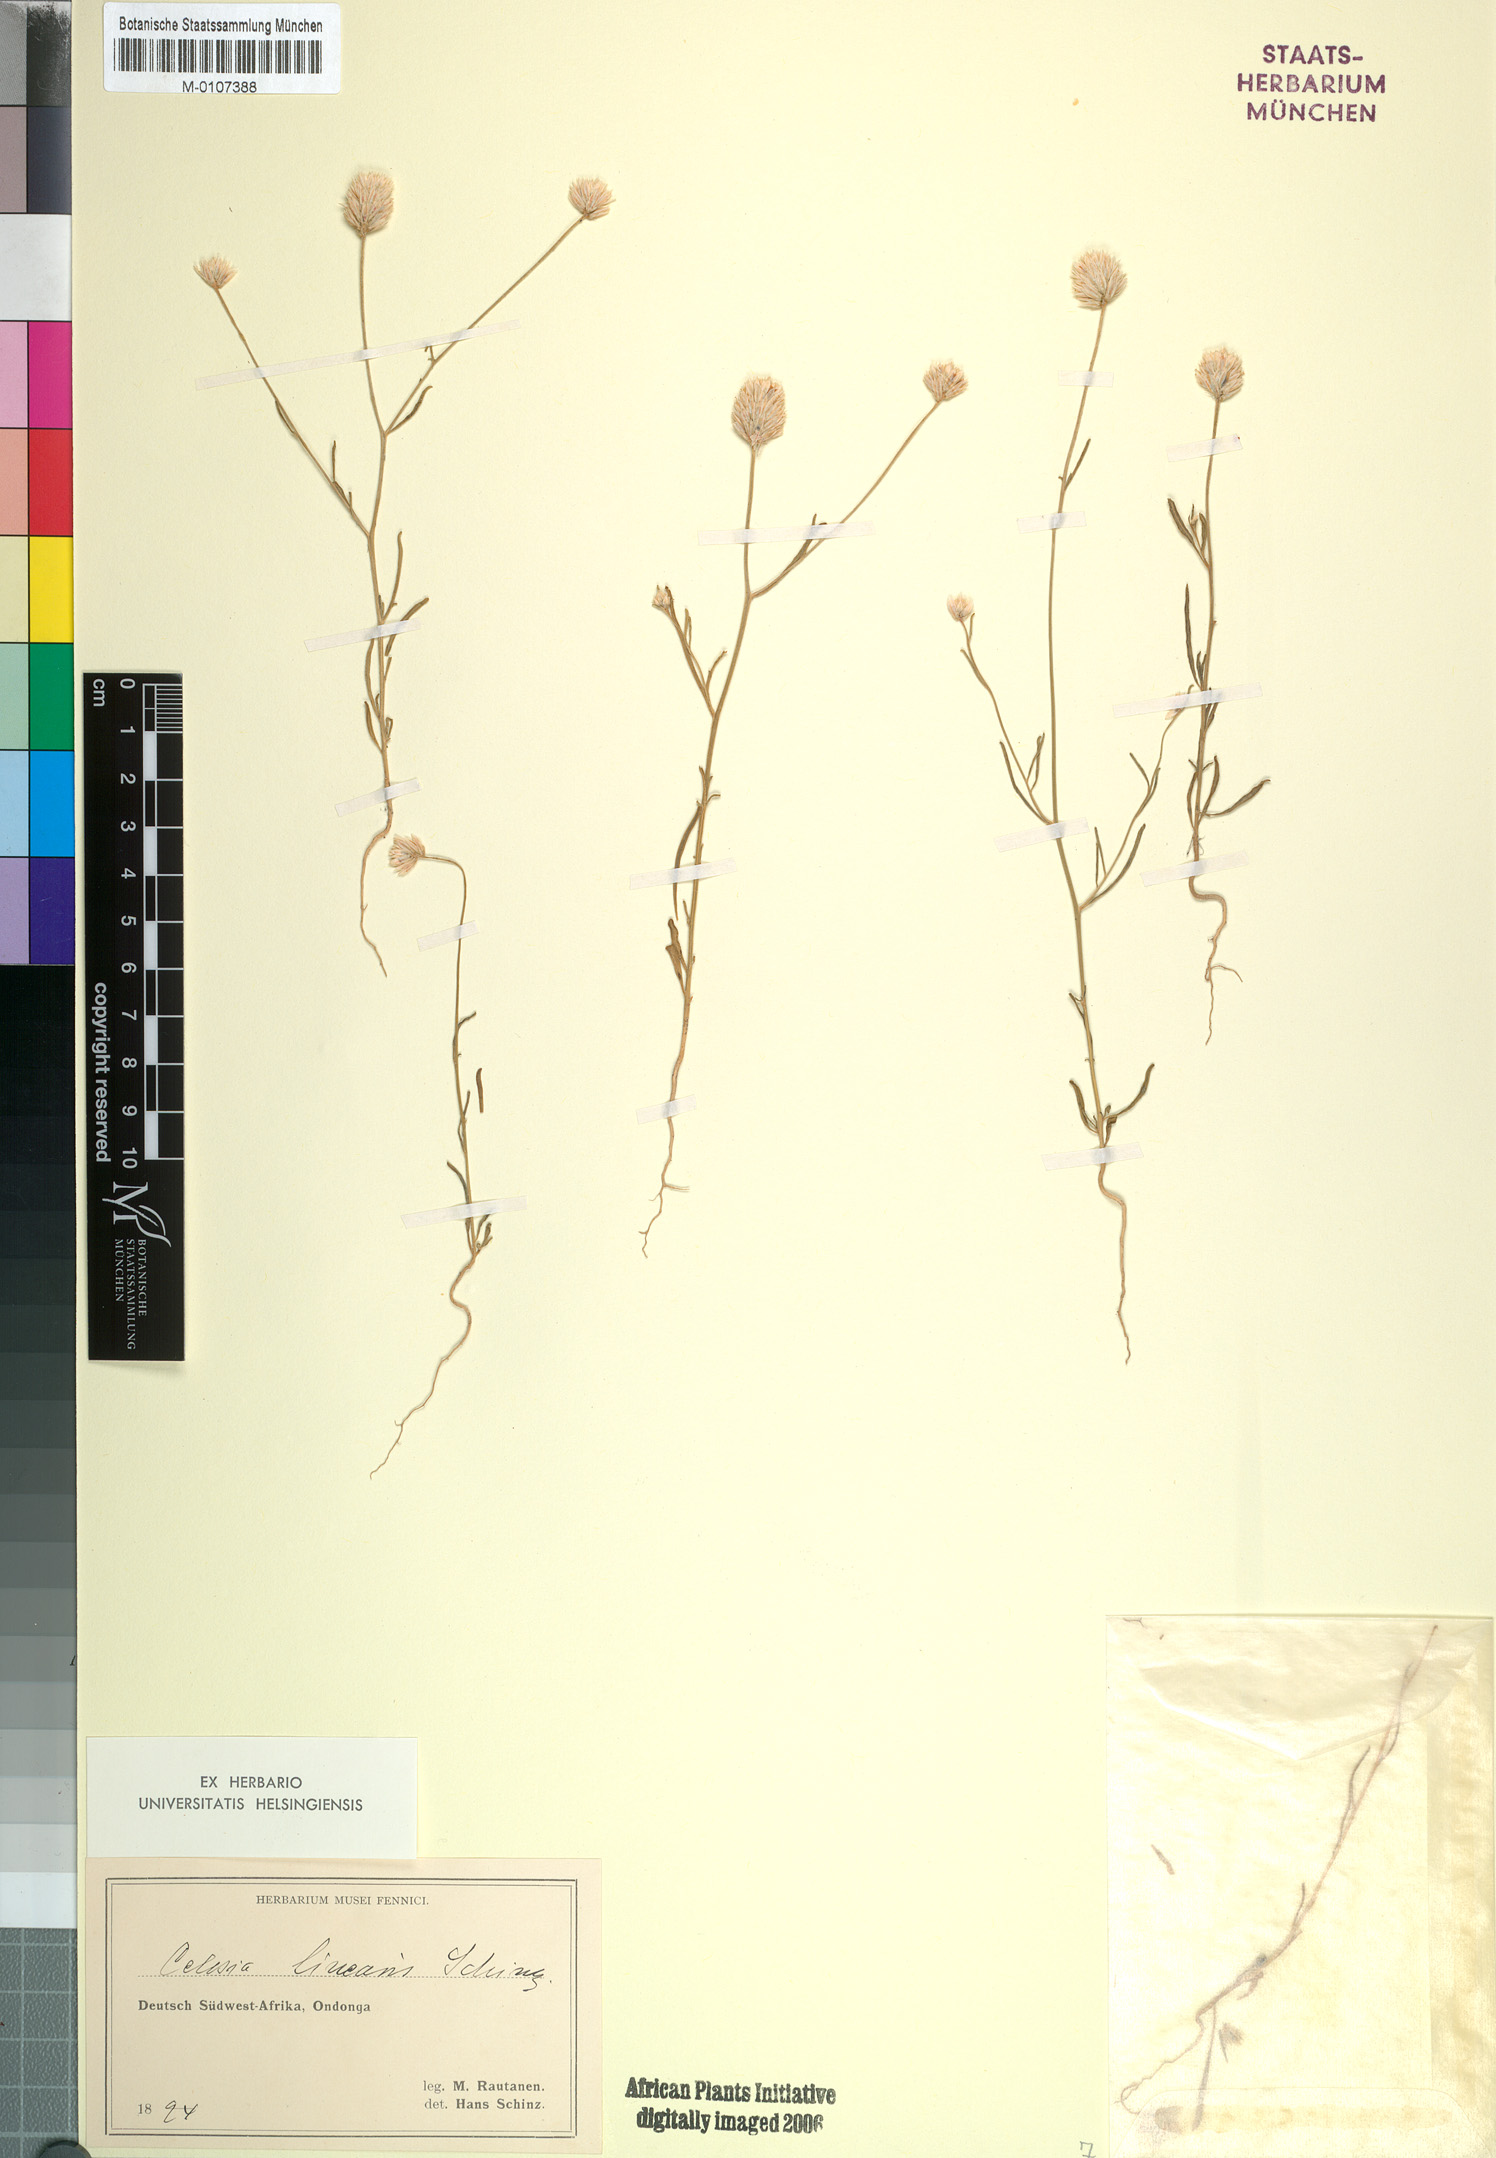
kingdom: Plantae
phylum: Tracheophyta
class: Magnoliopsida
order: Caryophyllales
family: Amaranthaceae
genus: Hermbstaedtia
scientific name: Hermbstaedtia linearis
